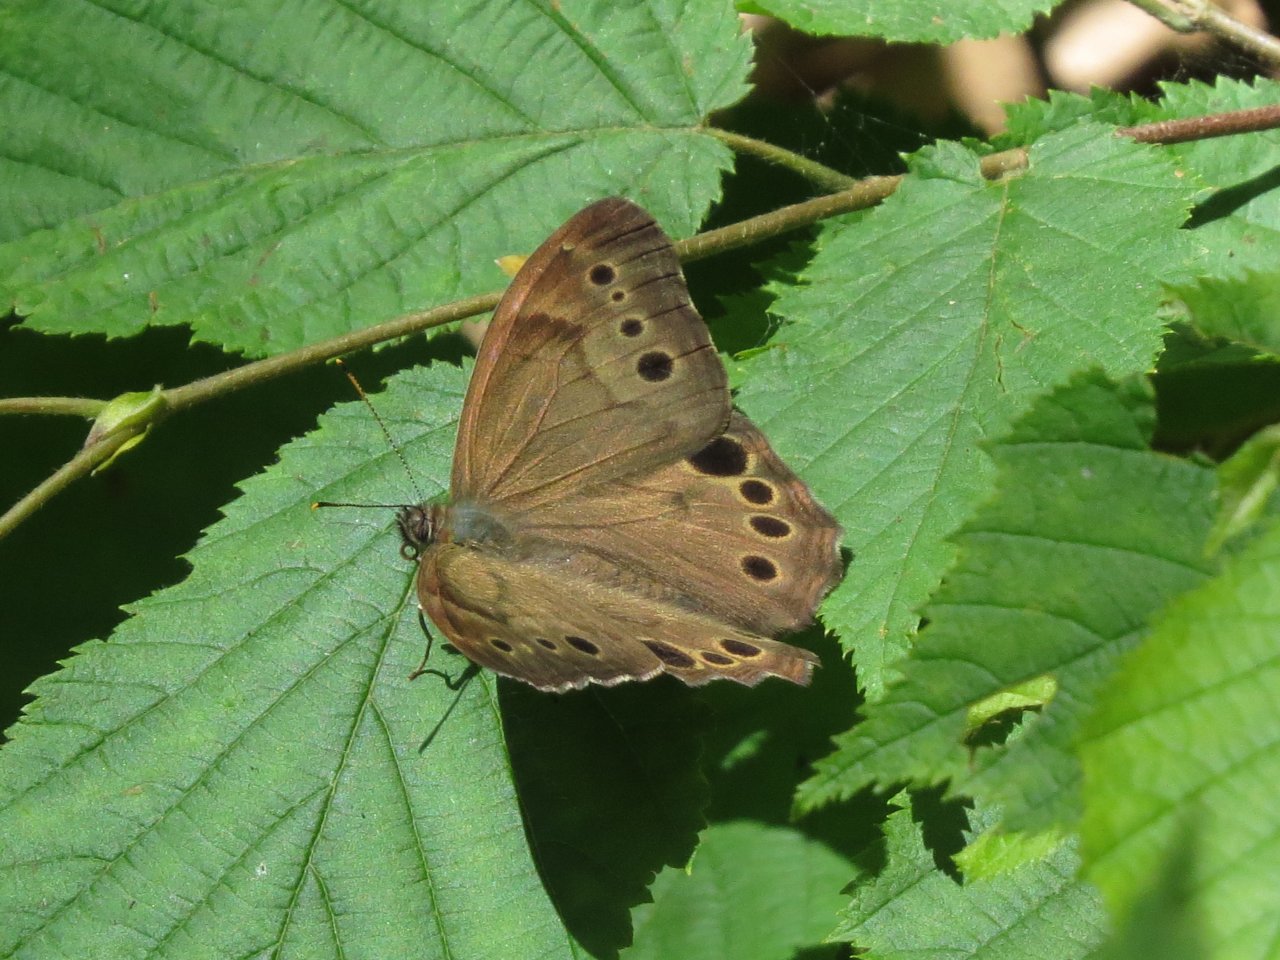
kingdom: Animalia
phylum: Arthropoda
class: Insecta
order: Lepidoptera
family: Nymphalidae
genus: Lethe
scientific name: Lethe anthedon
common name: Northern Pearly-Eye
